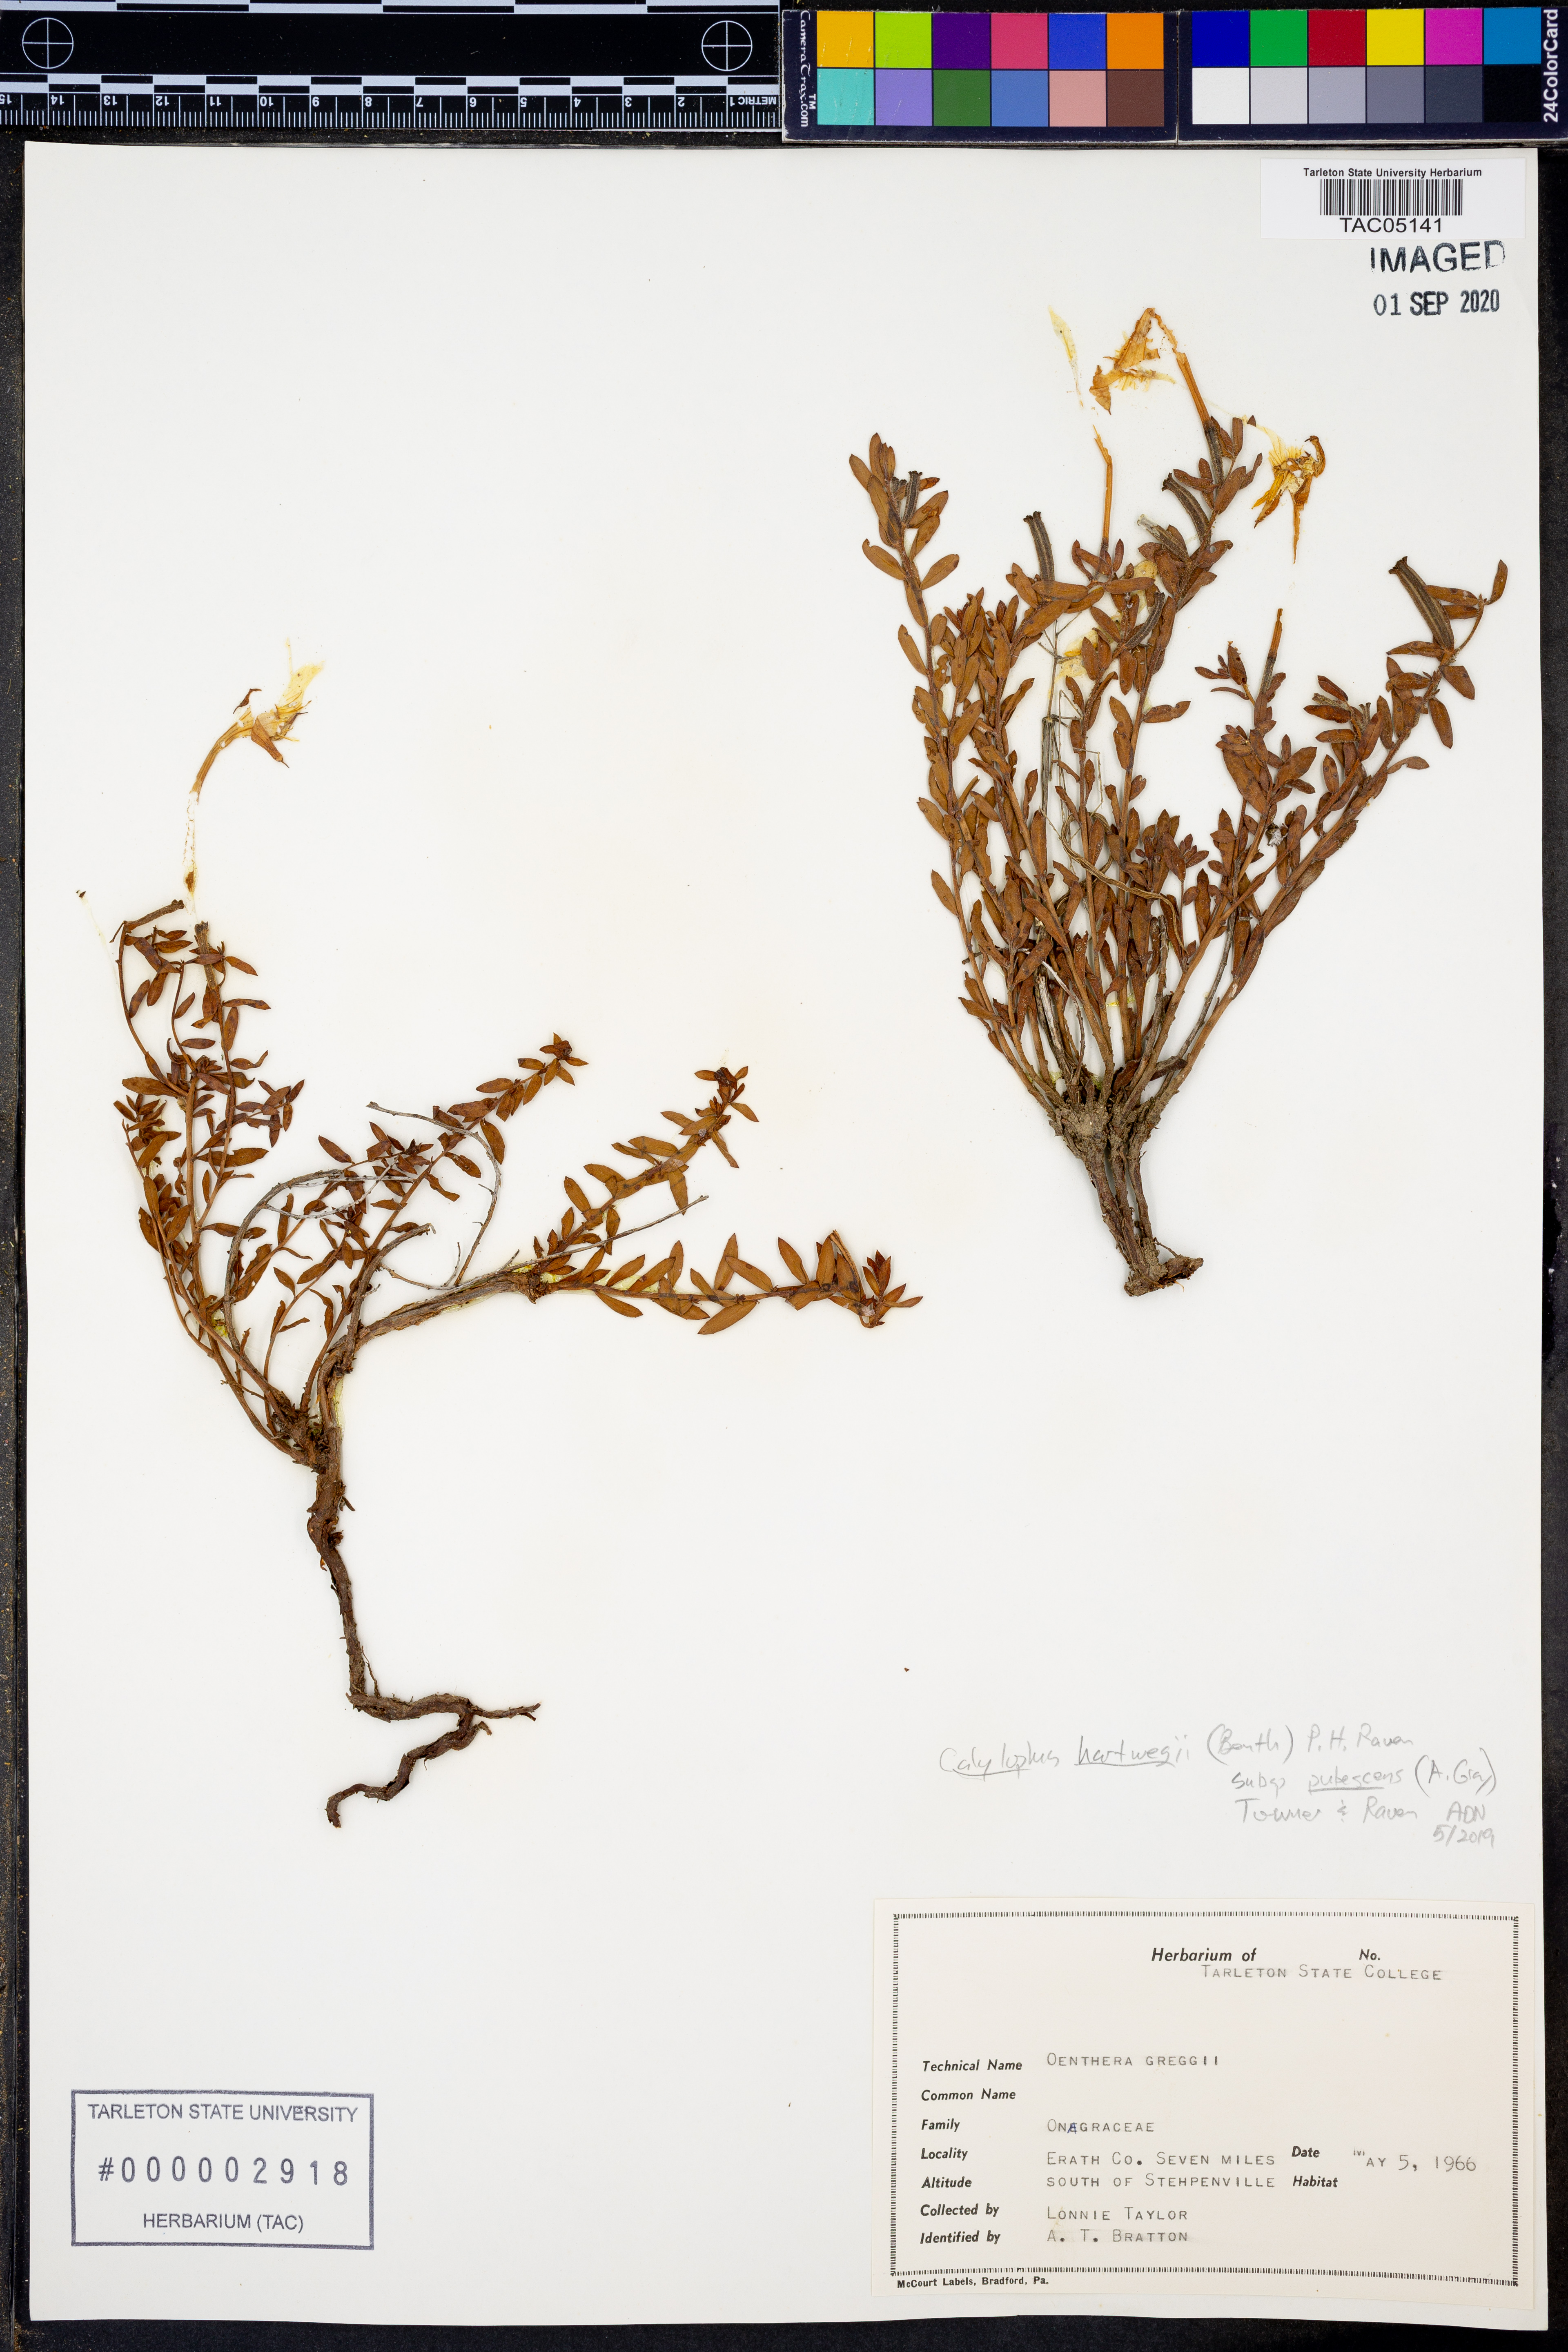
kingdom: Plantae
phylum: Tracheophyta
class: Magnoliopsida
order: Myrtales
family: Onagraceae
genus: Oenothera
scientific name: Oenothera hartwegii
